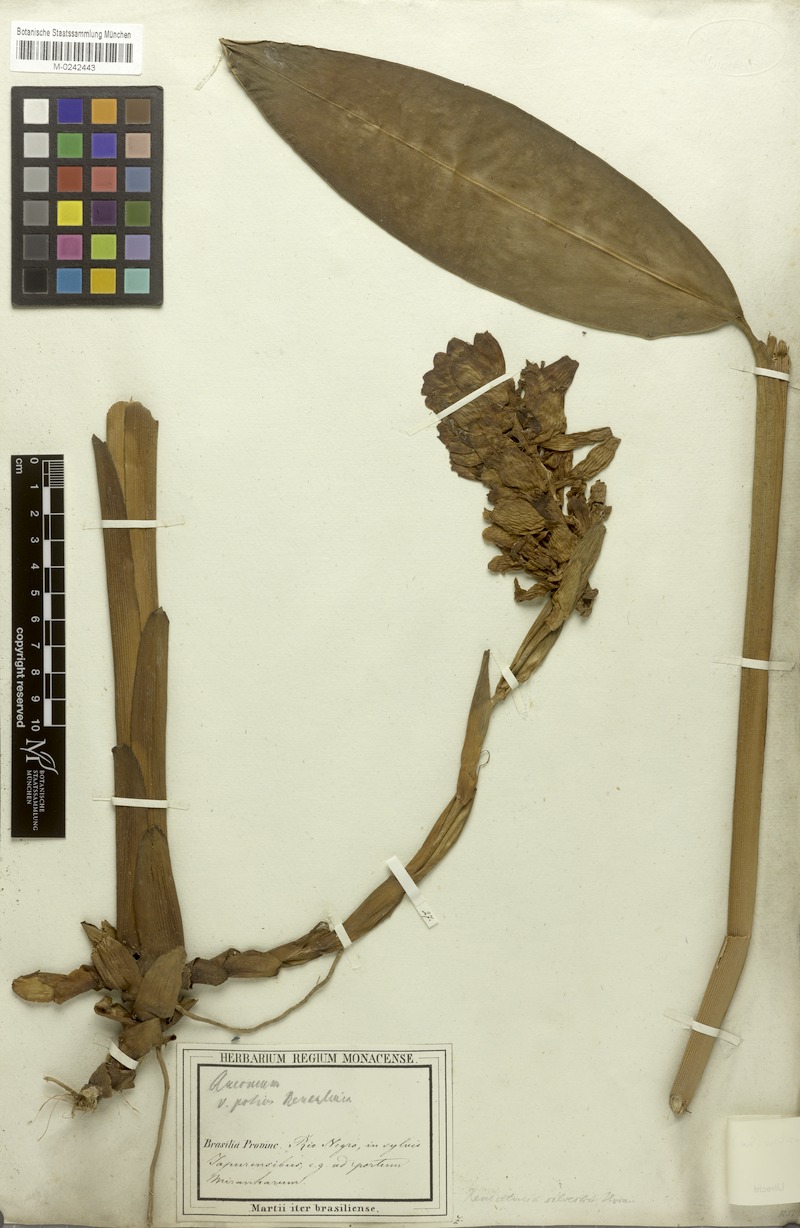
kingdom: Plantae
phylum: Tracheophyta
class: Liliopsida
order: Zingiberales
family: Zingiberaceae
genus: Renealmia
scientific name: Renealmia striata
